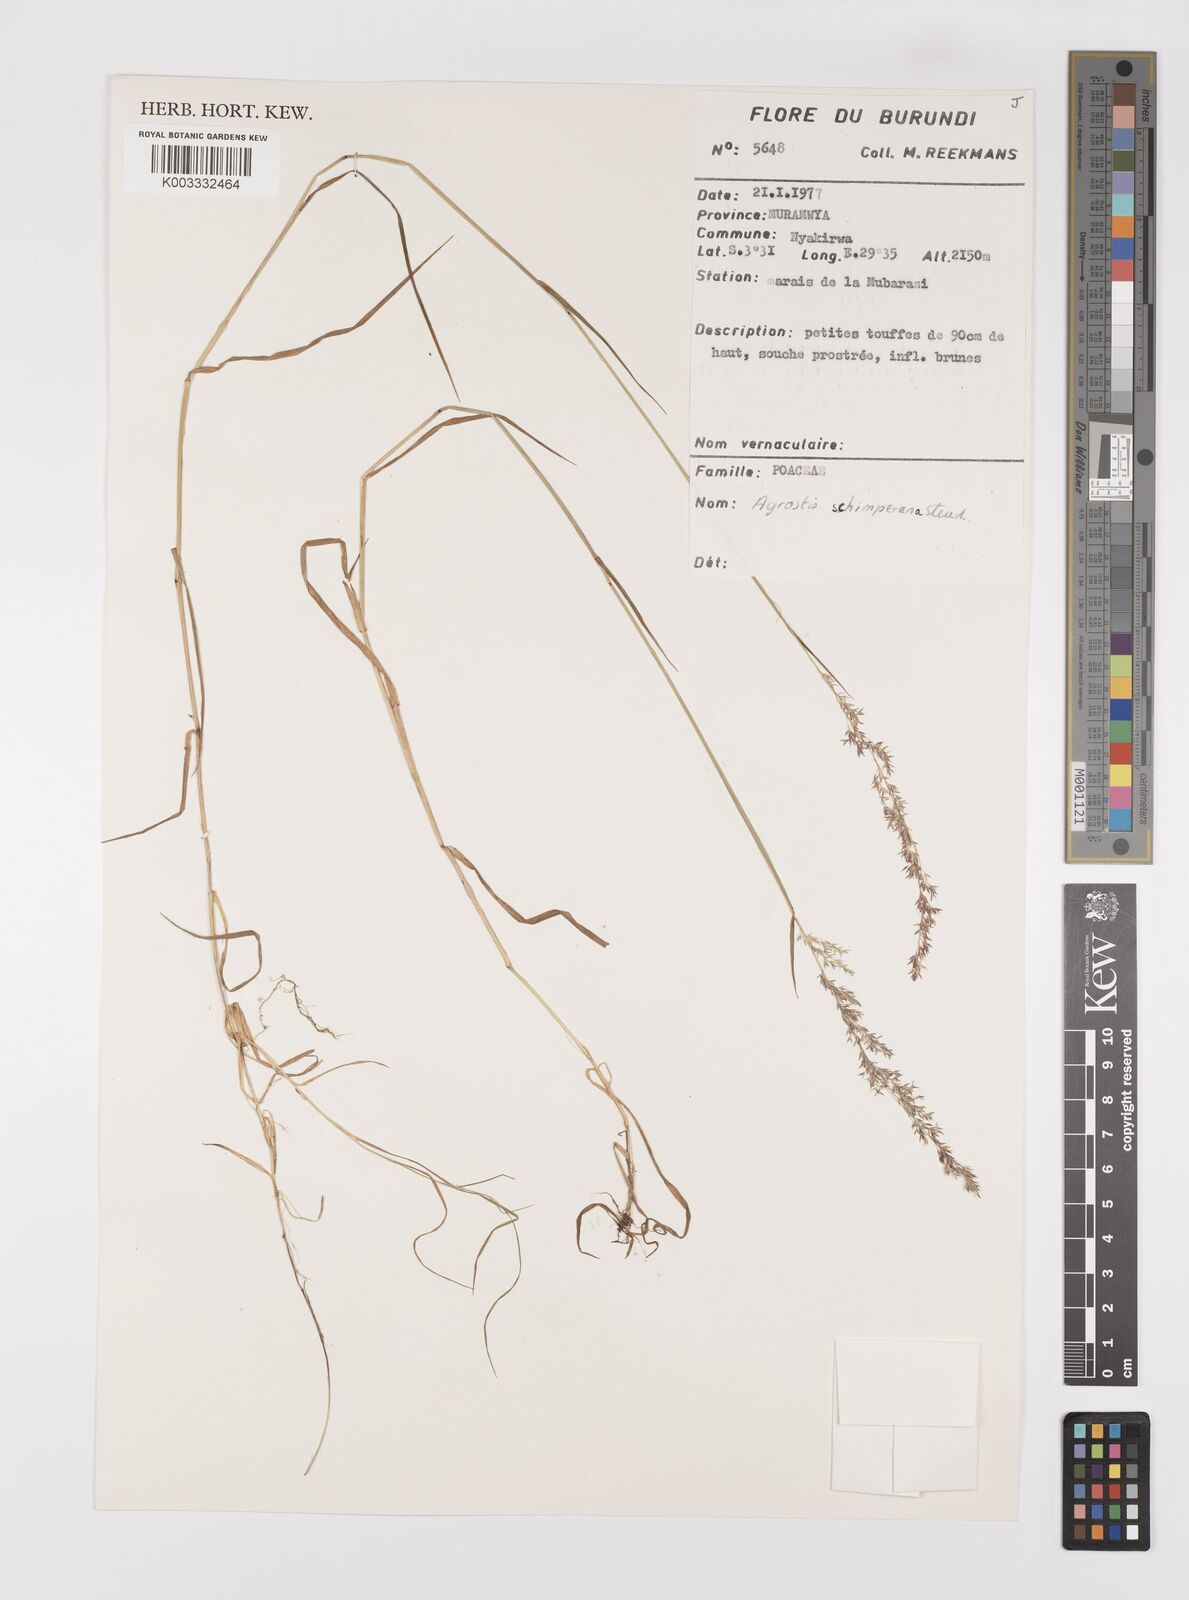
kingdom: Plantae
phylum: Tracheophyta
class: Liliopsida
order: Poales
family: Poaceae
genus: Polypogon
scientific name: Polypogon schimperianus
